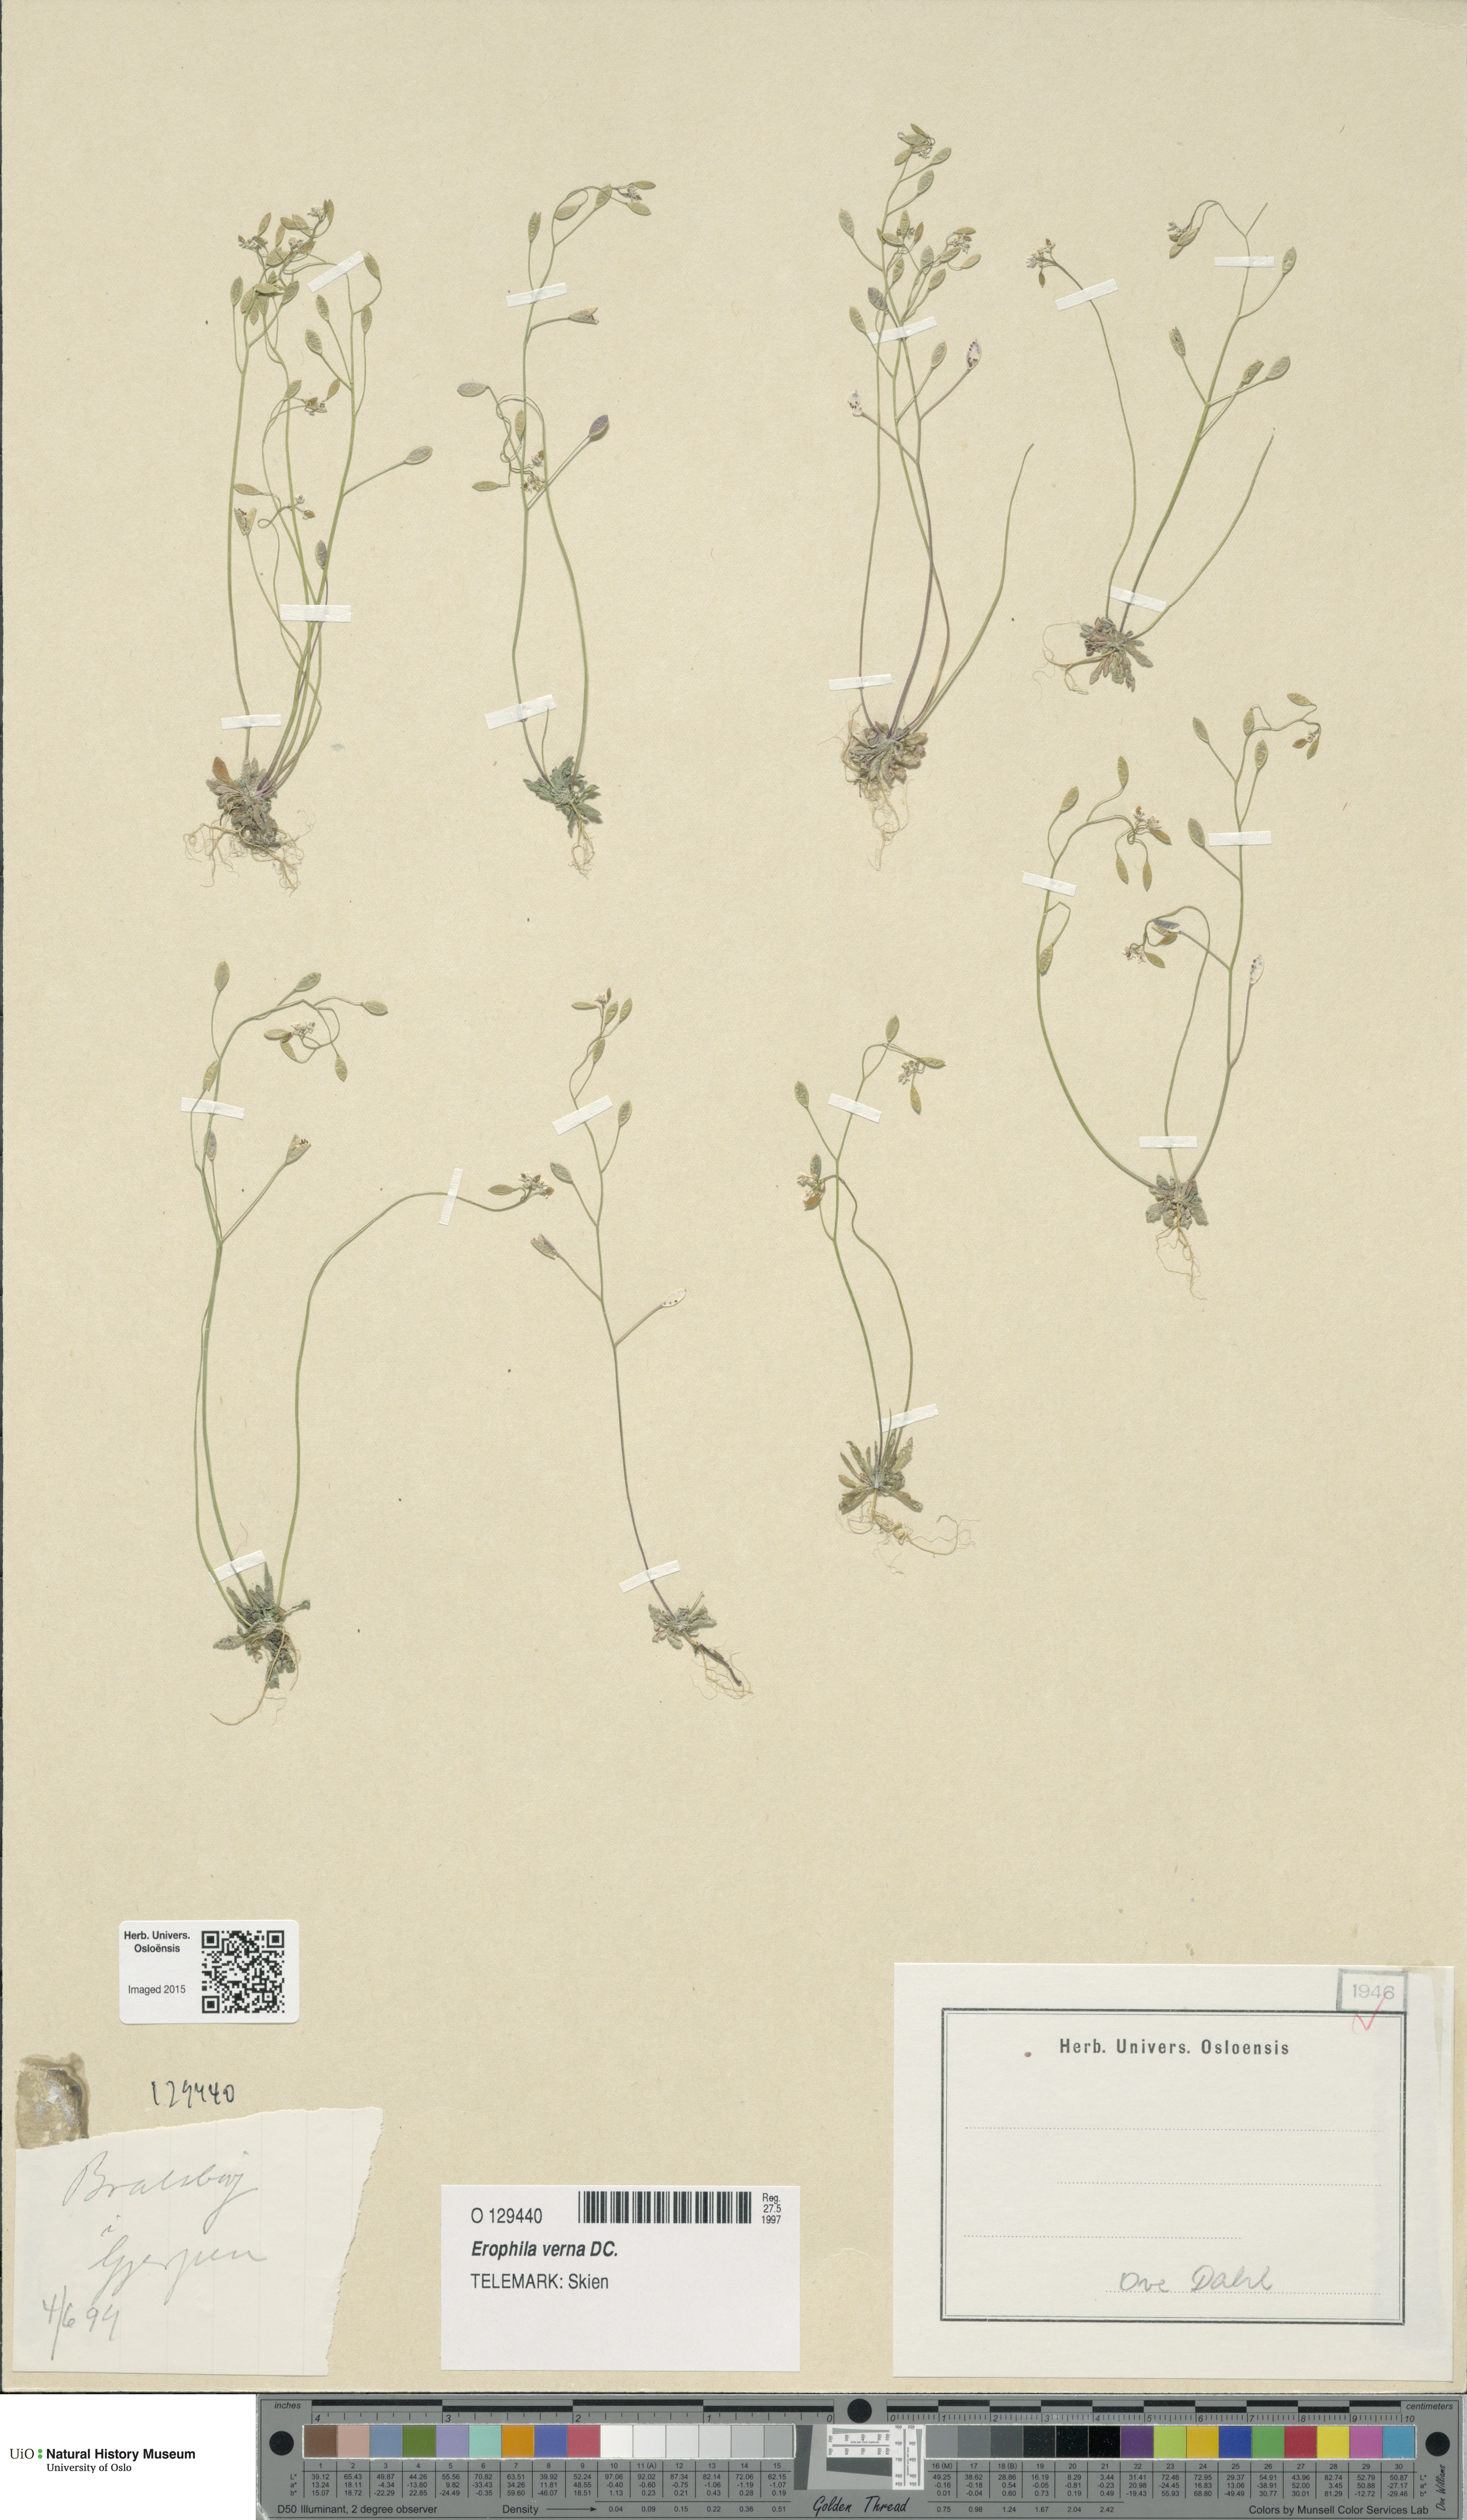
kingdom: Plantae
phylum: Tracheophyta
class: Magnoliopsida
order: Brassicales
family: Brassicaceae
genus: Draba
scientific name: Draba verna
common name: Spring draba
